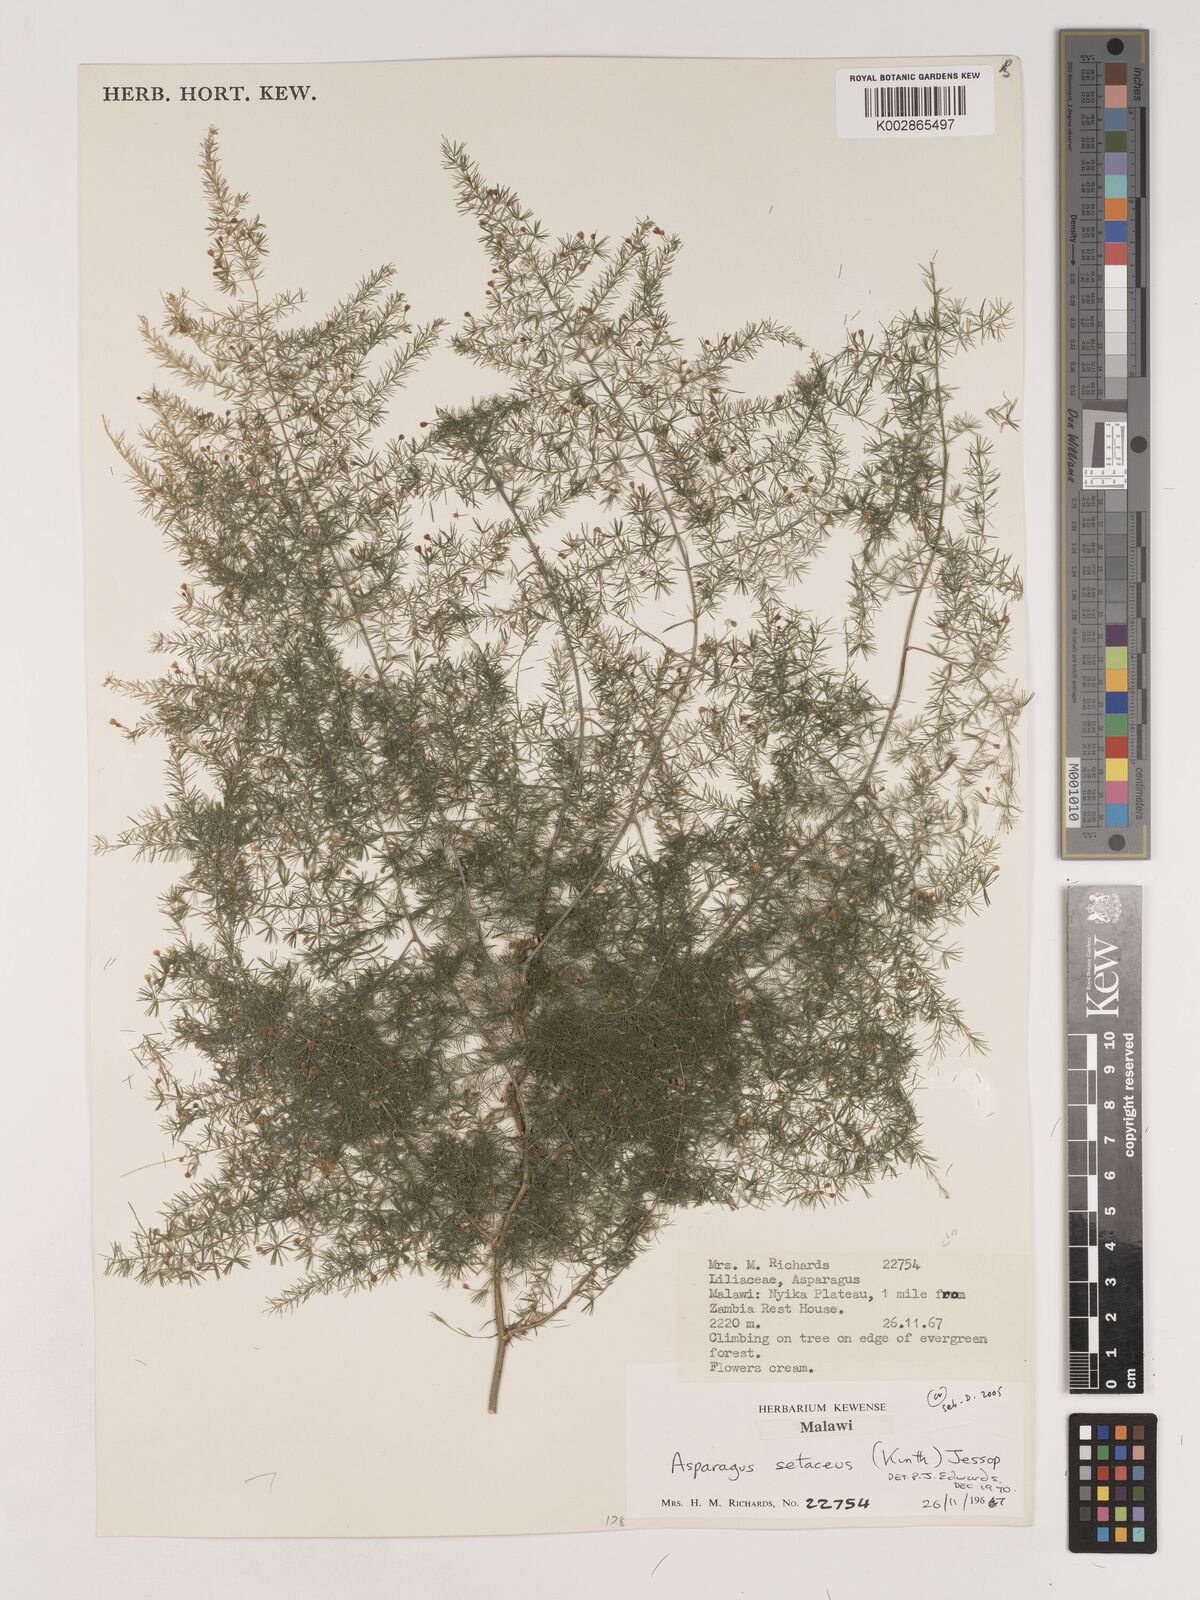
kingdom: Plantae
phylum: Tracheophyta
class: Liliopsida
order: Asparagales
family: Asparagaceae
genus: Asparagus
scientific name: Asparagus setaceus
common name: Common asparagus fern
